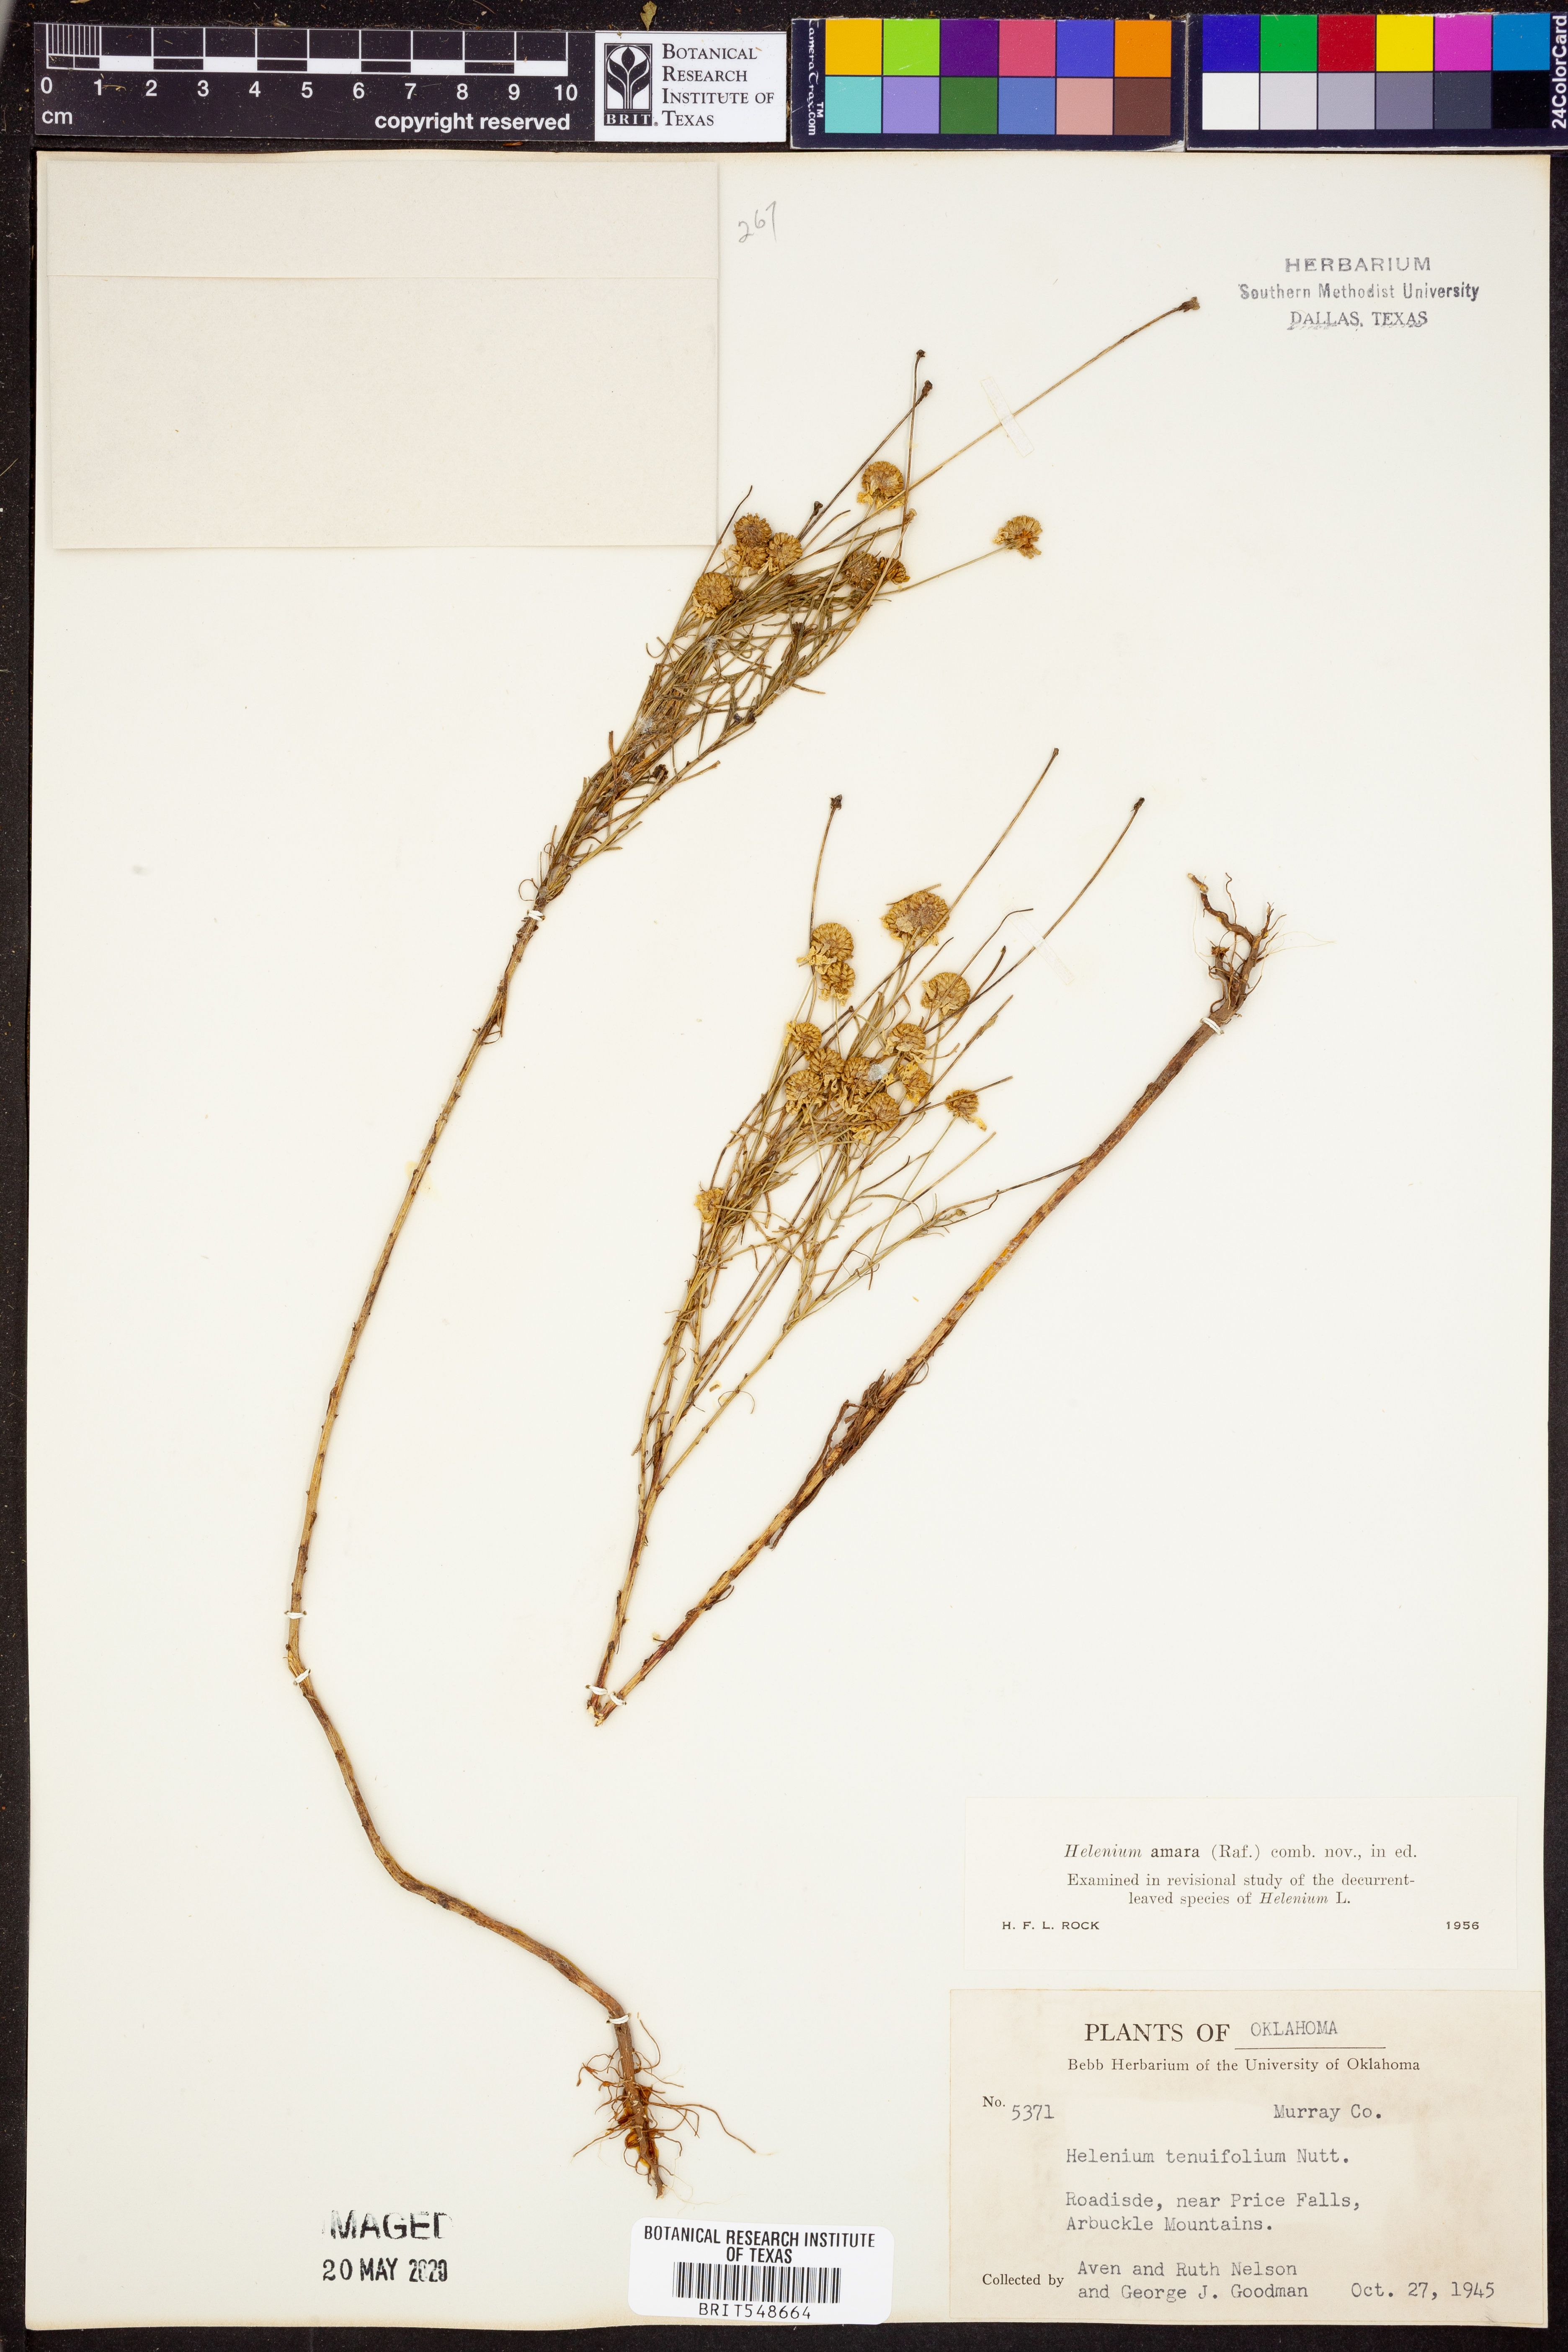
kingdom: Plantae
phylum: Tracheophyta
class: Magnoliopsida
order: Asterales
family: Asteraceae
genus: Helenium
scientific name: Helenium amarum
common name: Bitter sneezeweed
